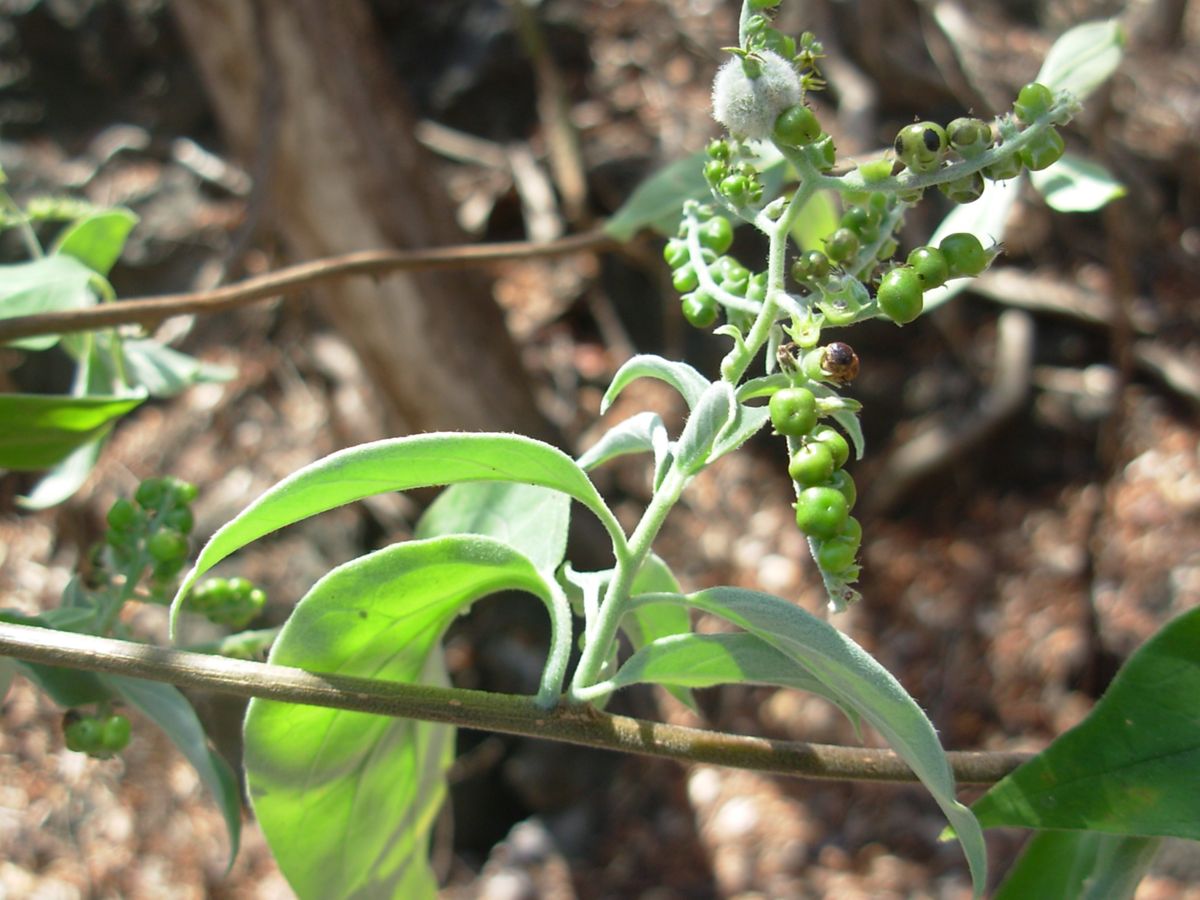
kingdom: Plantae
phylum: Tracheophyta
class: Magnoliopsida
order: Boraginales
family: Heliotropiaceae
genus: Myriopus
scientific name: Myriopus volubilis
